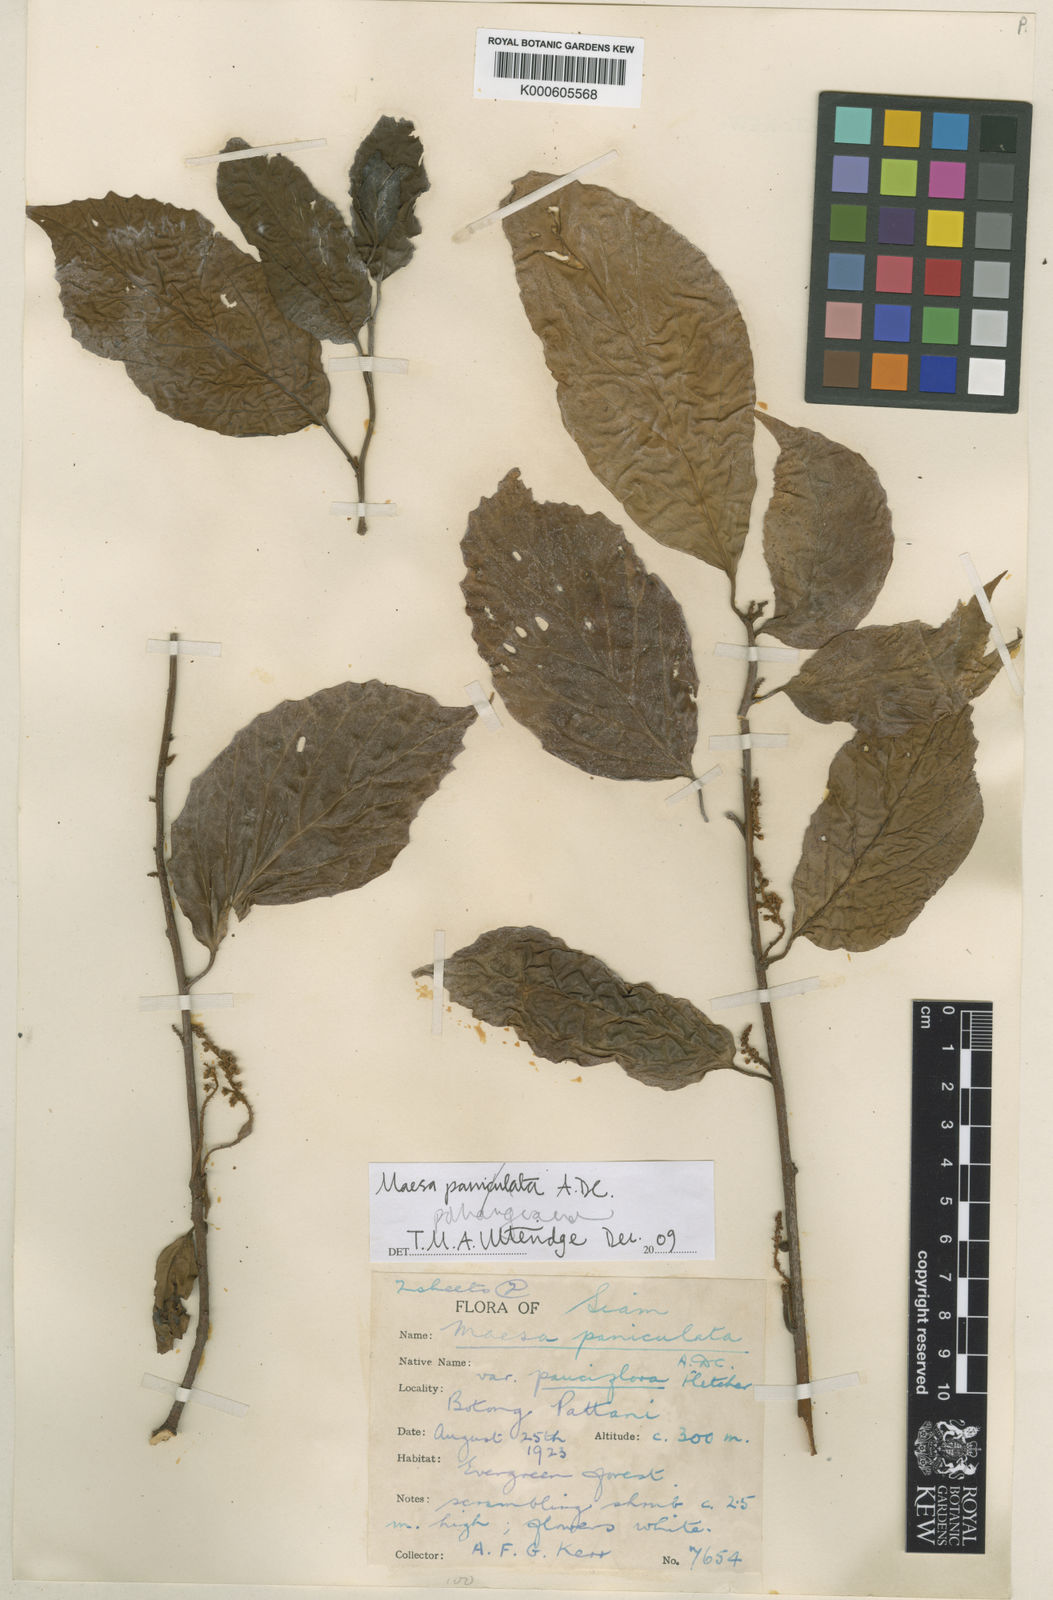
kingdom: Plantae
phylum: Tracheophyta
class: Magnoliopsida
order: Ericales
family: Primulaceae
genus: Maesa
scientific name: Maesa pahangiana
